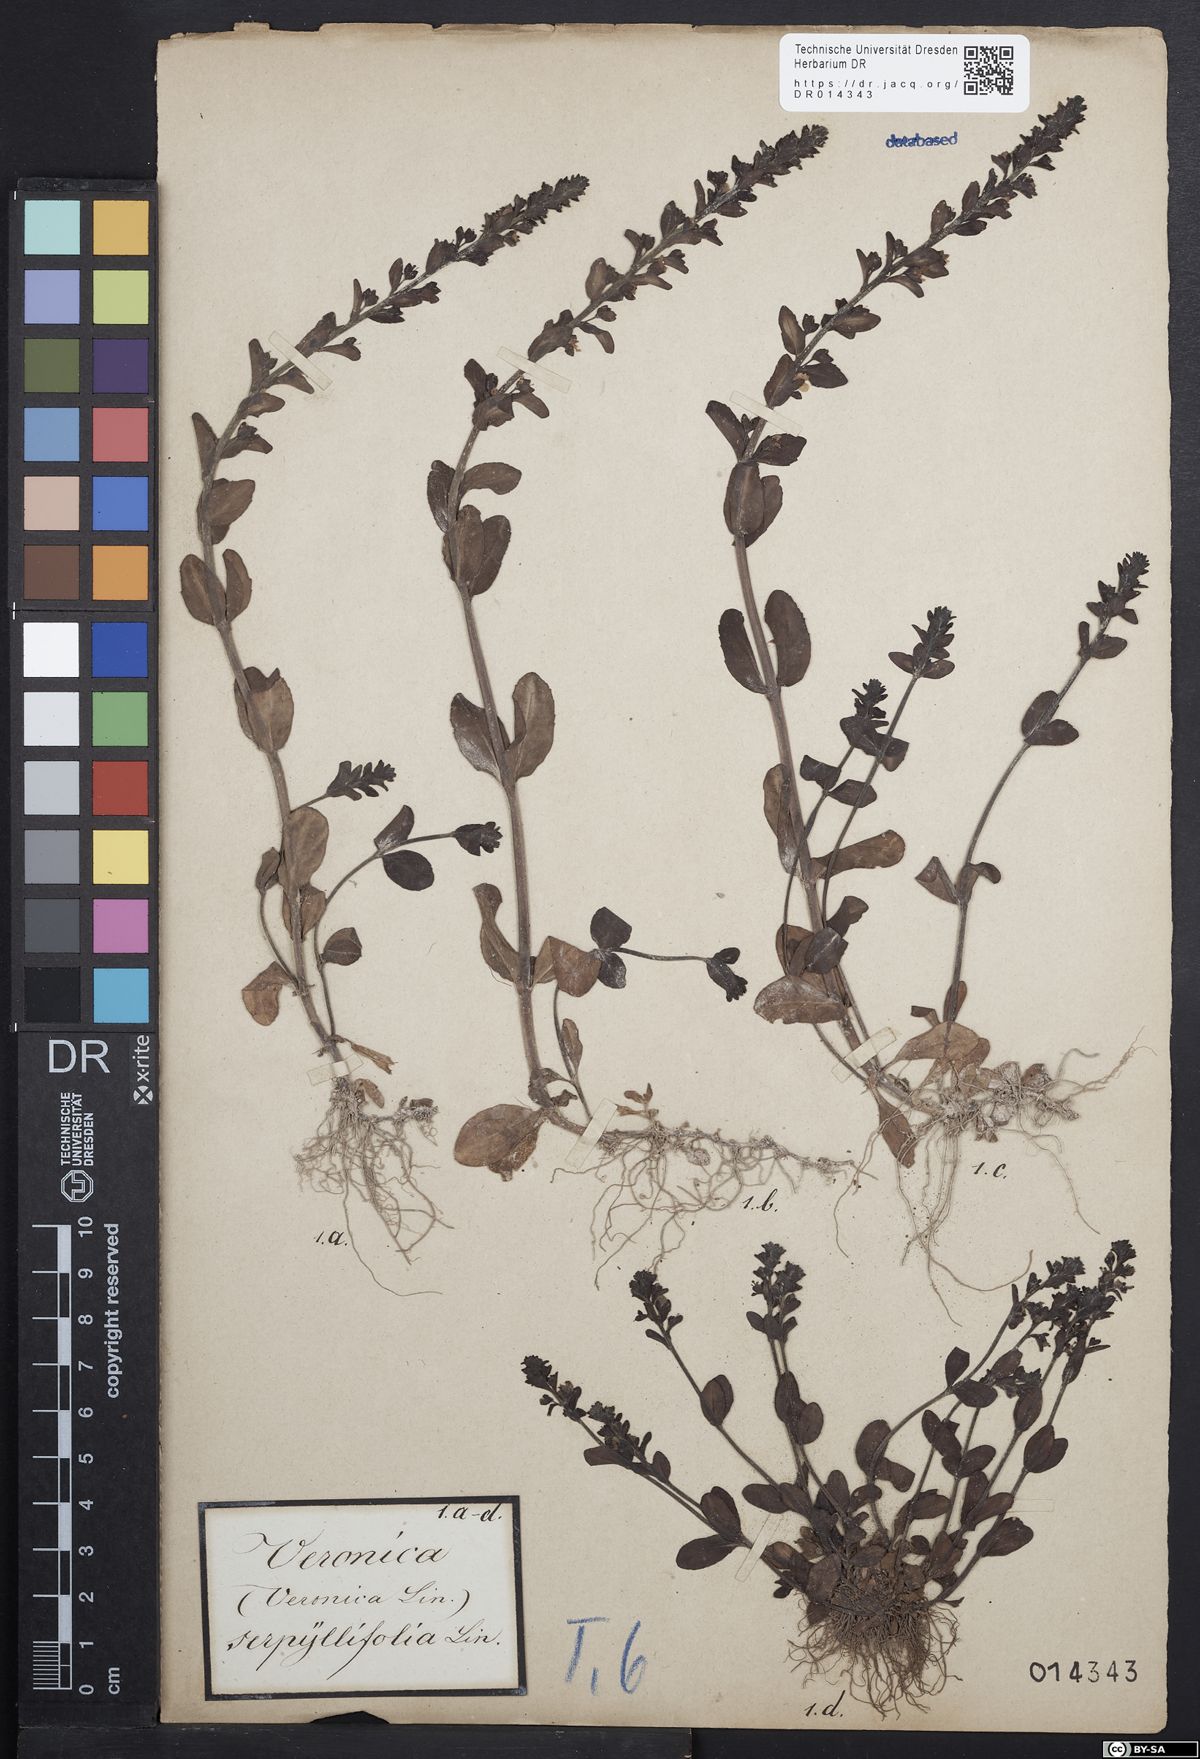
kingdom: Plantae
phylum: Tracheophyta
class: Magnoliopsida
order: Lamiales
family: Plantaginaceae
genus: Veronica
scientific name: Veronica serpyllifolia
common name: Thyme-leaved speedwell
